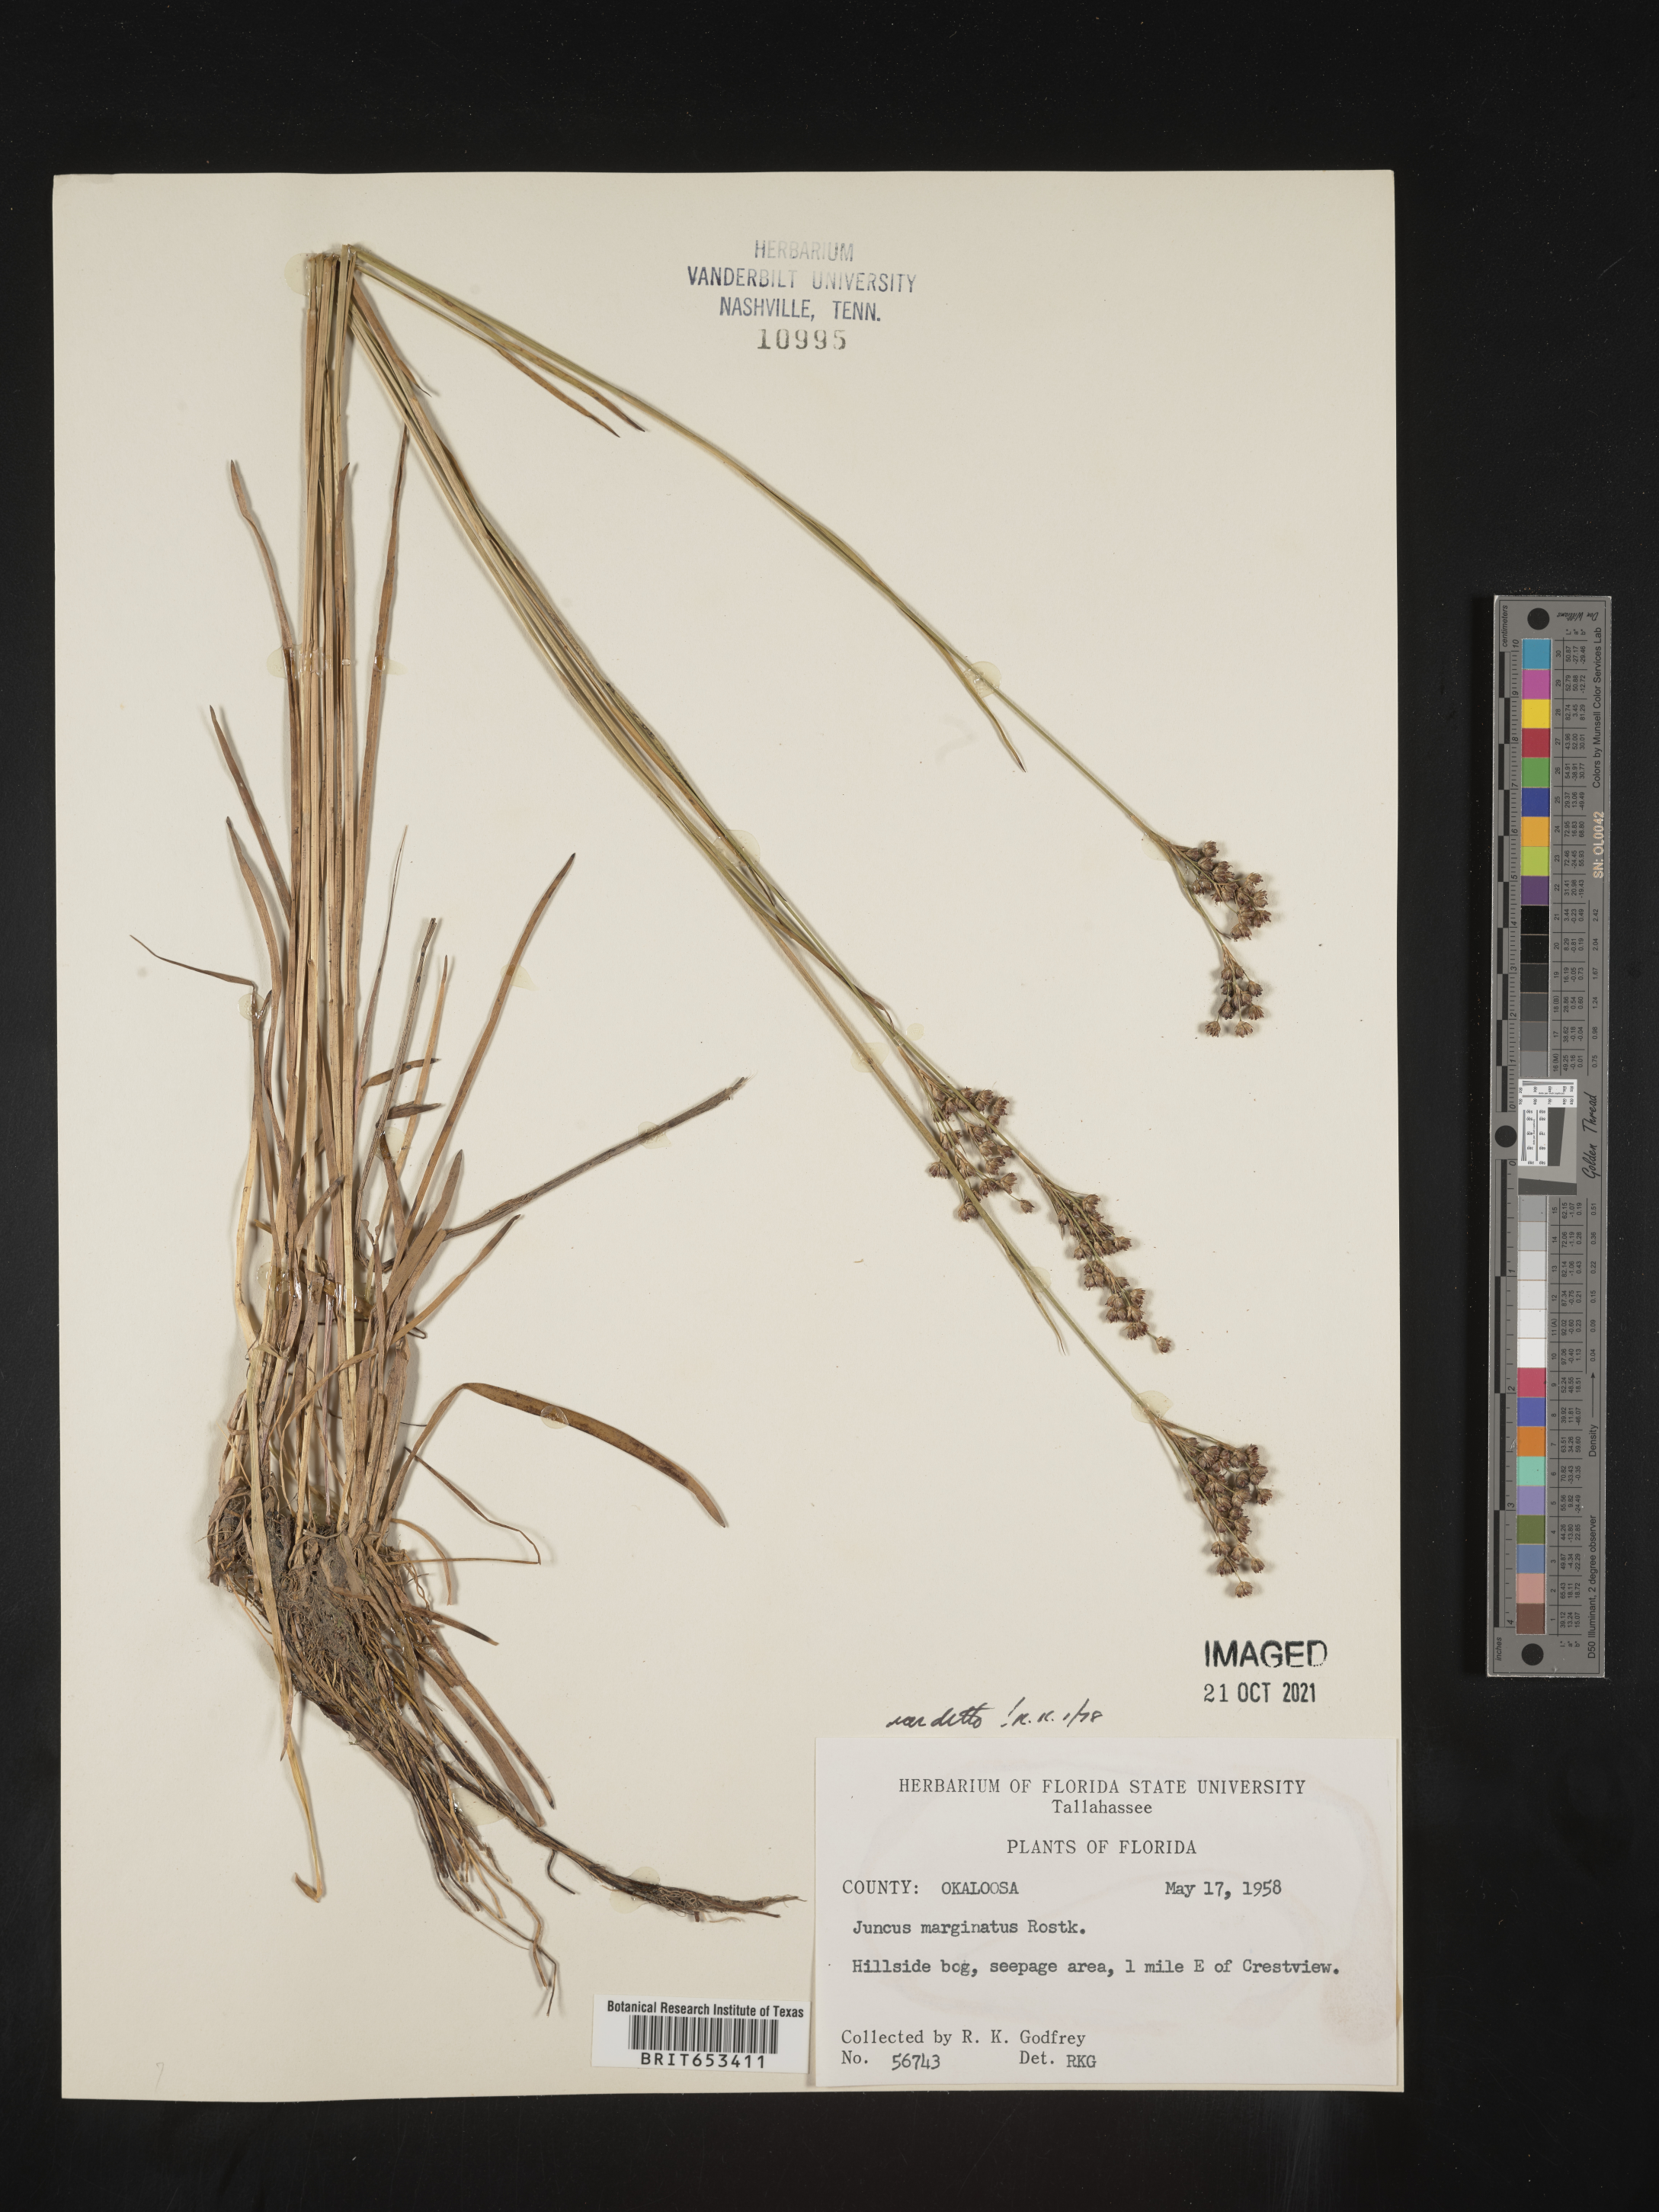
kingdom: Plantae
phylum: Tracheophyta
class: Liliopsida
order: Poales
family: Juncaceae
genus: Juncus
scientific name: Juncus marginatus
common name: Grass-leaf rush
